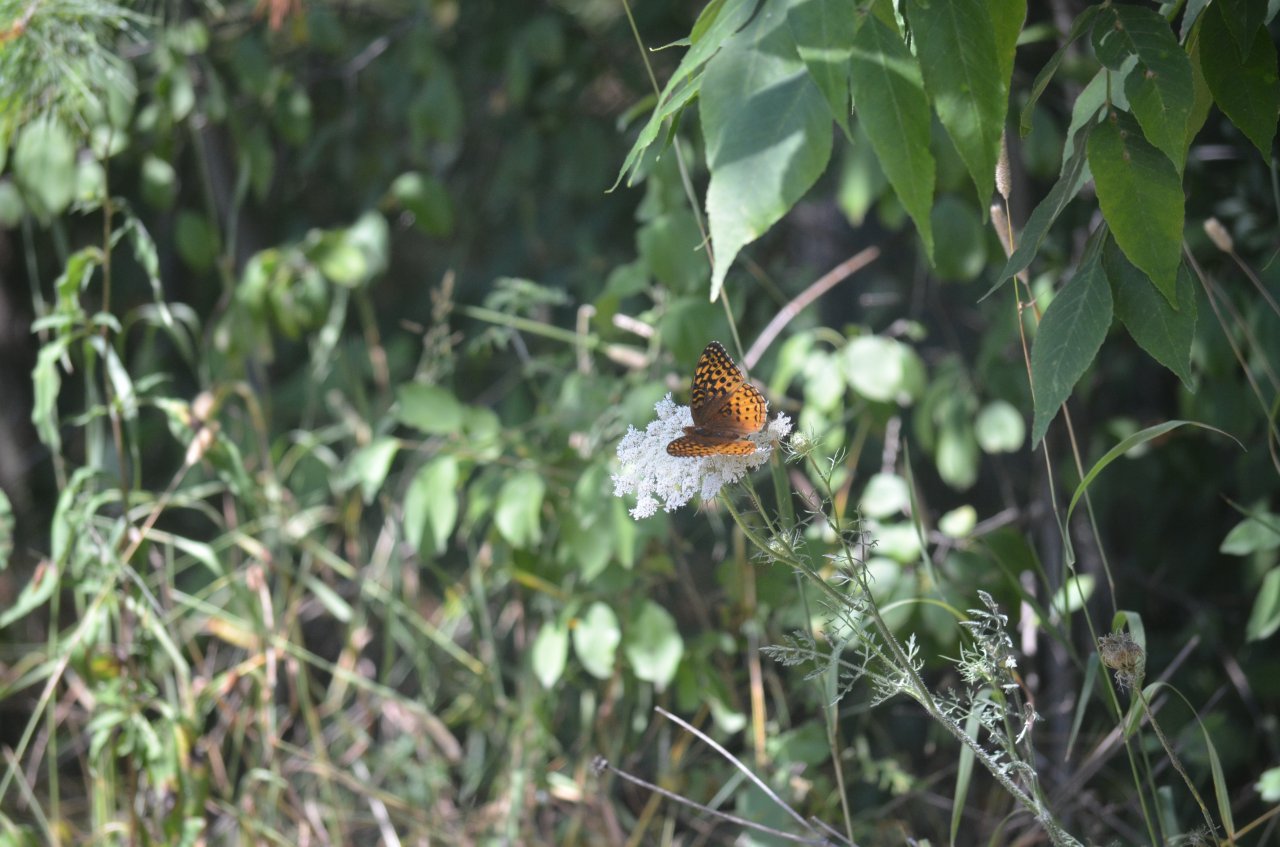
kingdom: Animalia
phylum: Arthropoda
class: Insecta
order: Lepidoptera
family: Nymphalidae
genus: Speyeria
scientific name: Speyeria cybele
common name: Great Spangled Fritillary
